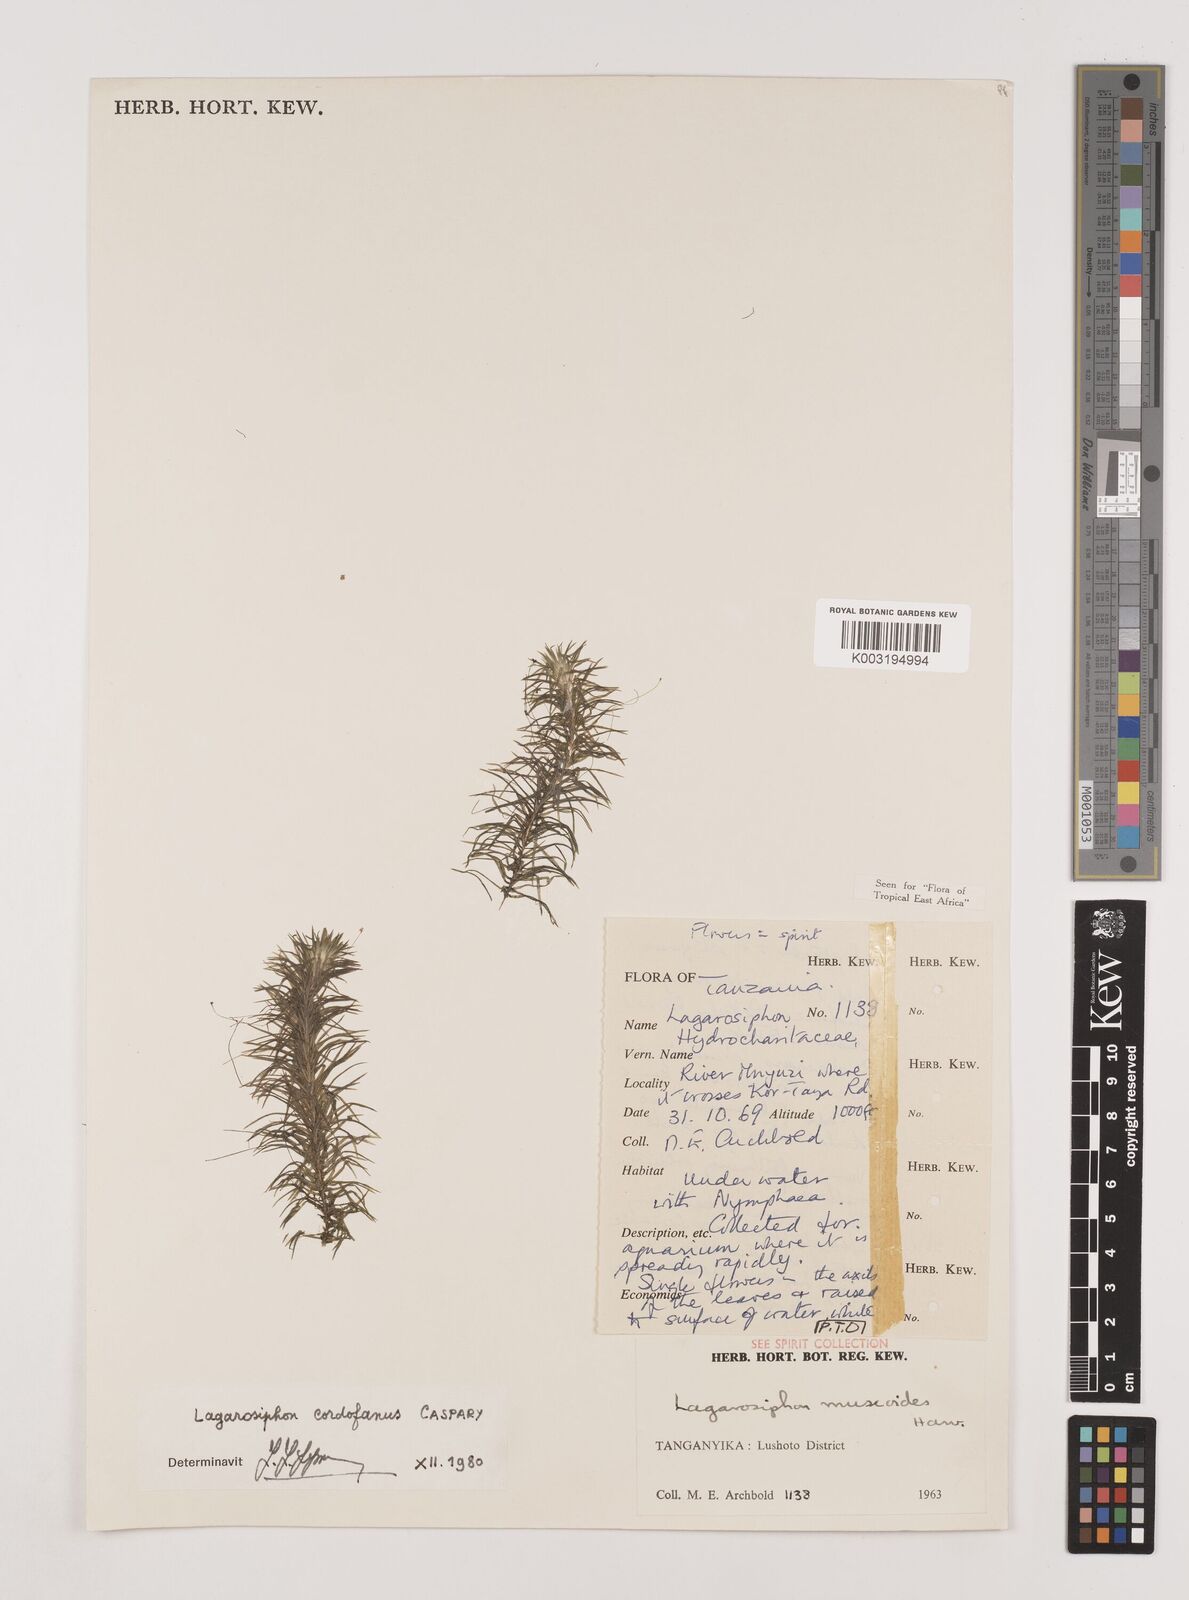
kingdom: Plantae
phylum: Tracheophyta
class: Liliopsida
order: Alismatales
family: Hydrocharitaceae
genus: Lagarosiphon
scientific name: Lagarosiphon cordofanus
